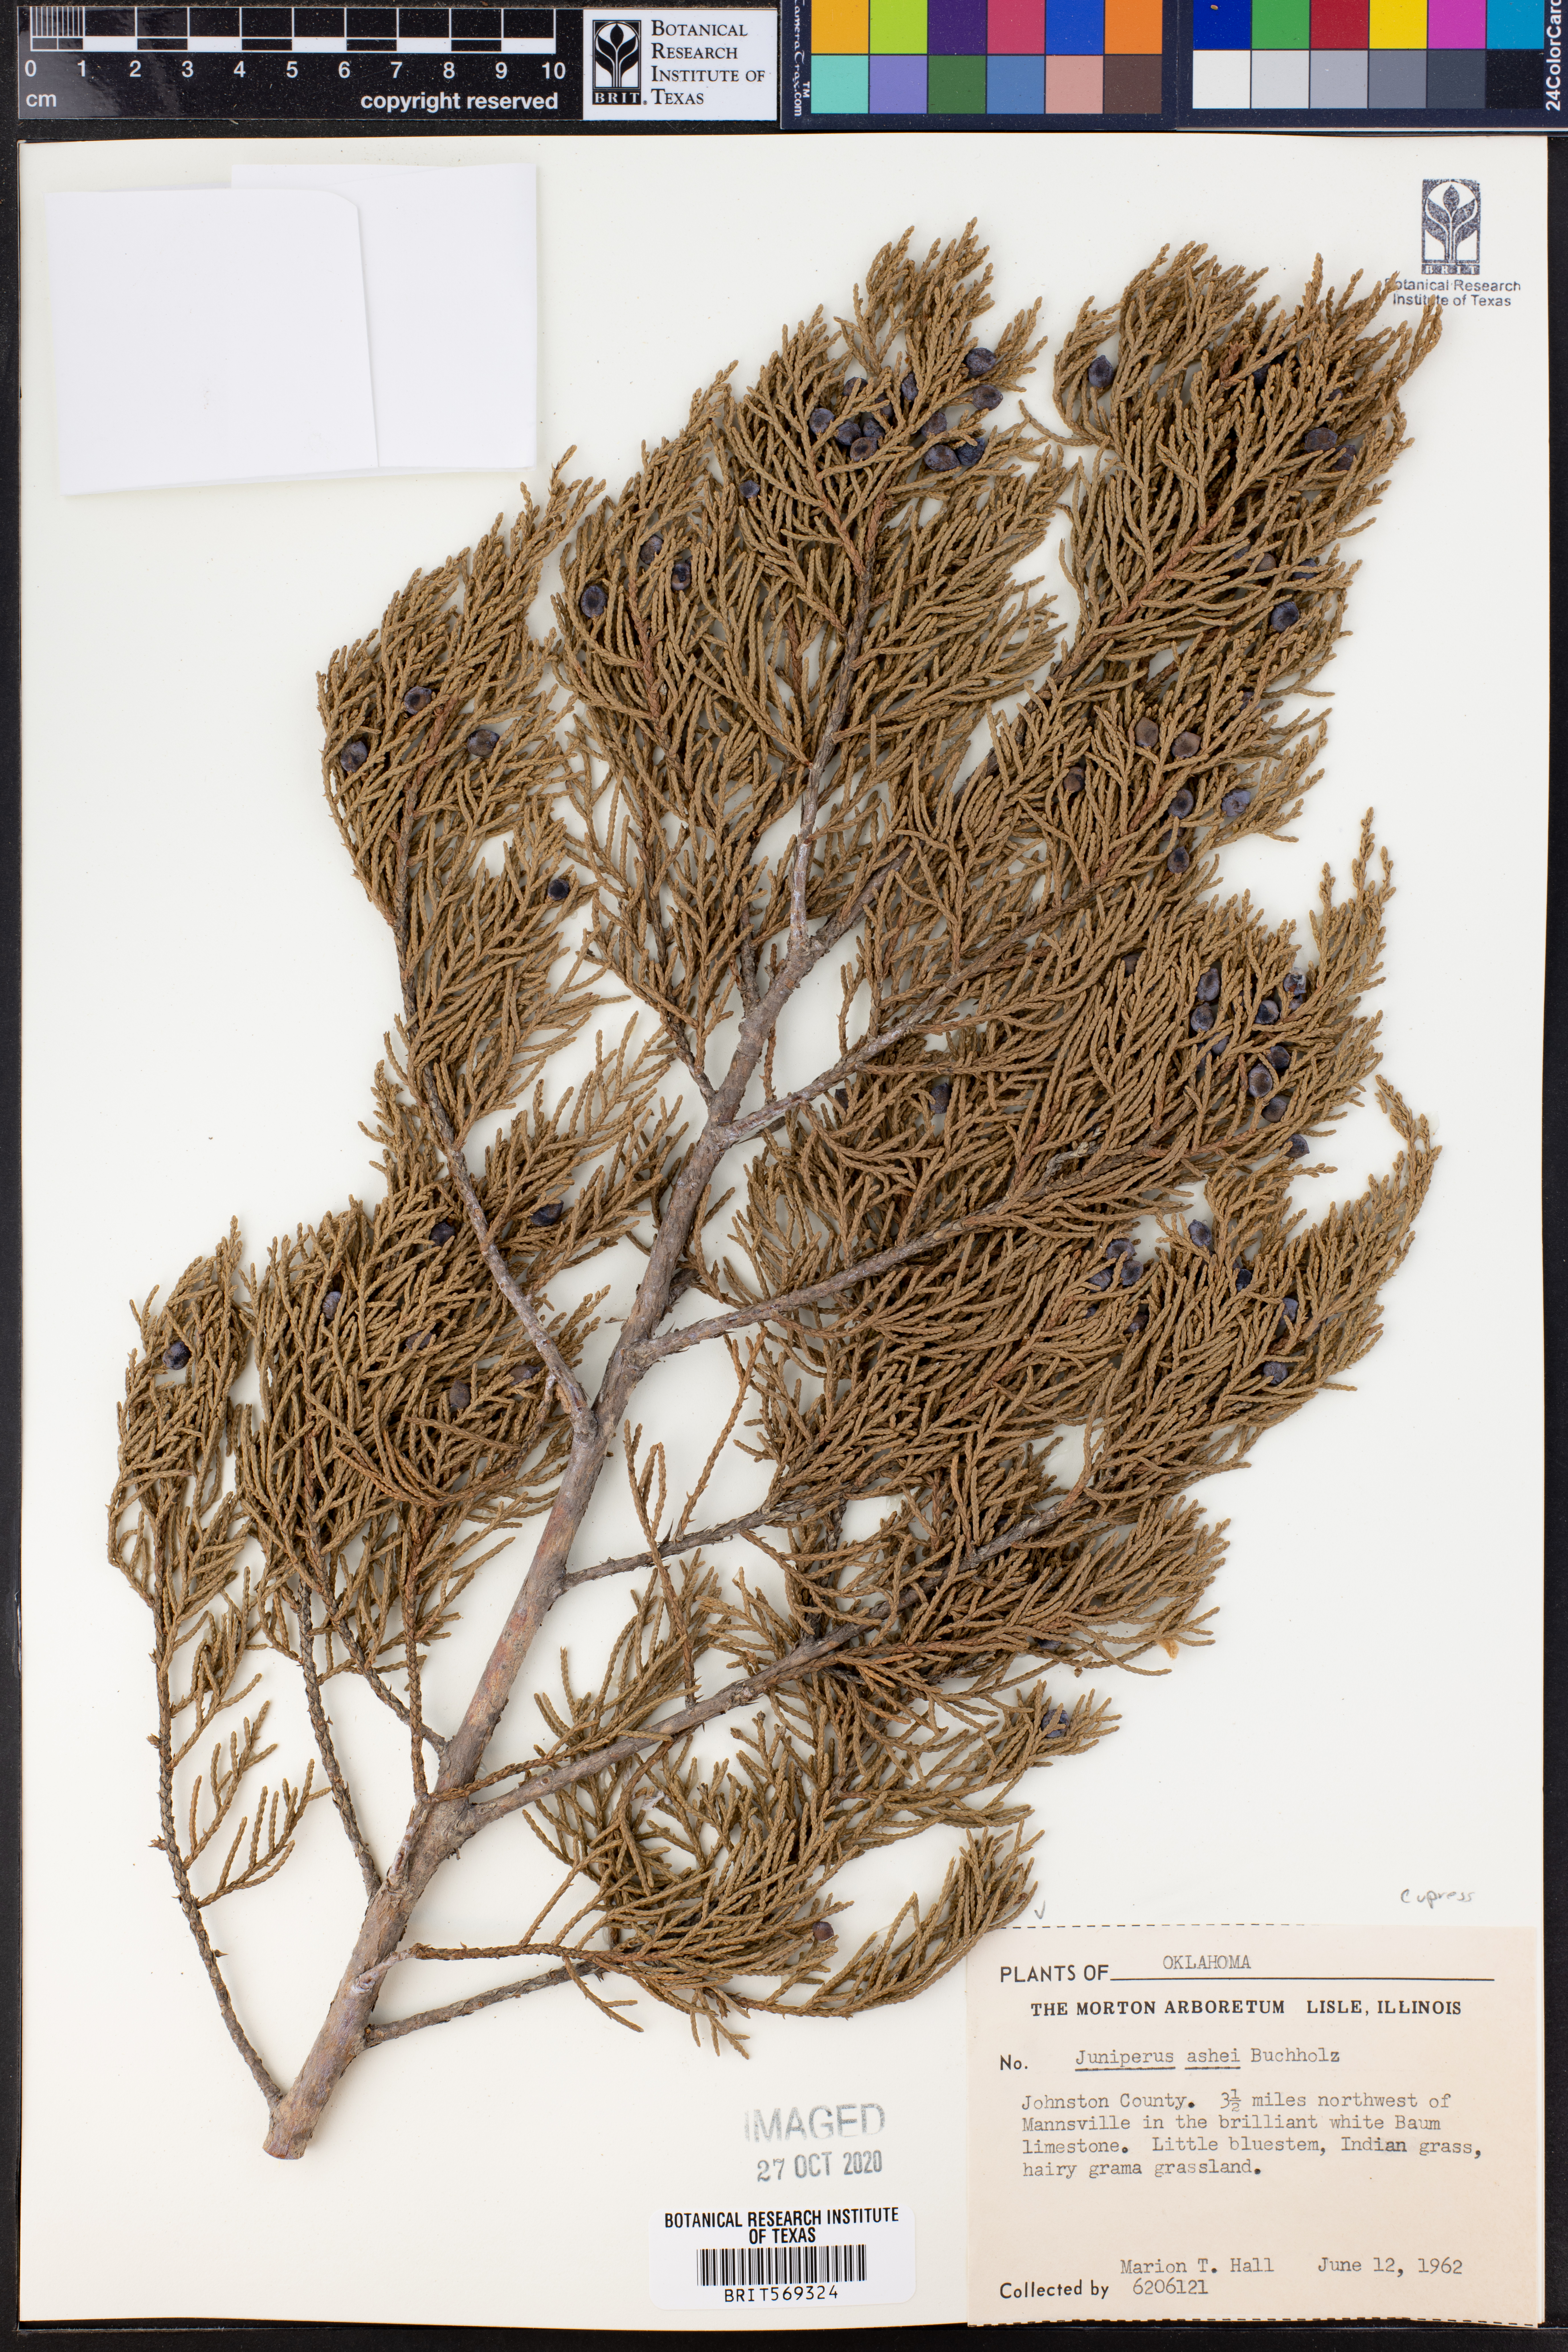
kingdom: Plantae
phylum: Tracheophyta
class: Pinopsida
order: Pinales
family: Cupressaceae
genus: Juniperus
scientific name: Juniperus ashei
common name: Mexican juniper
